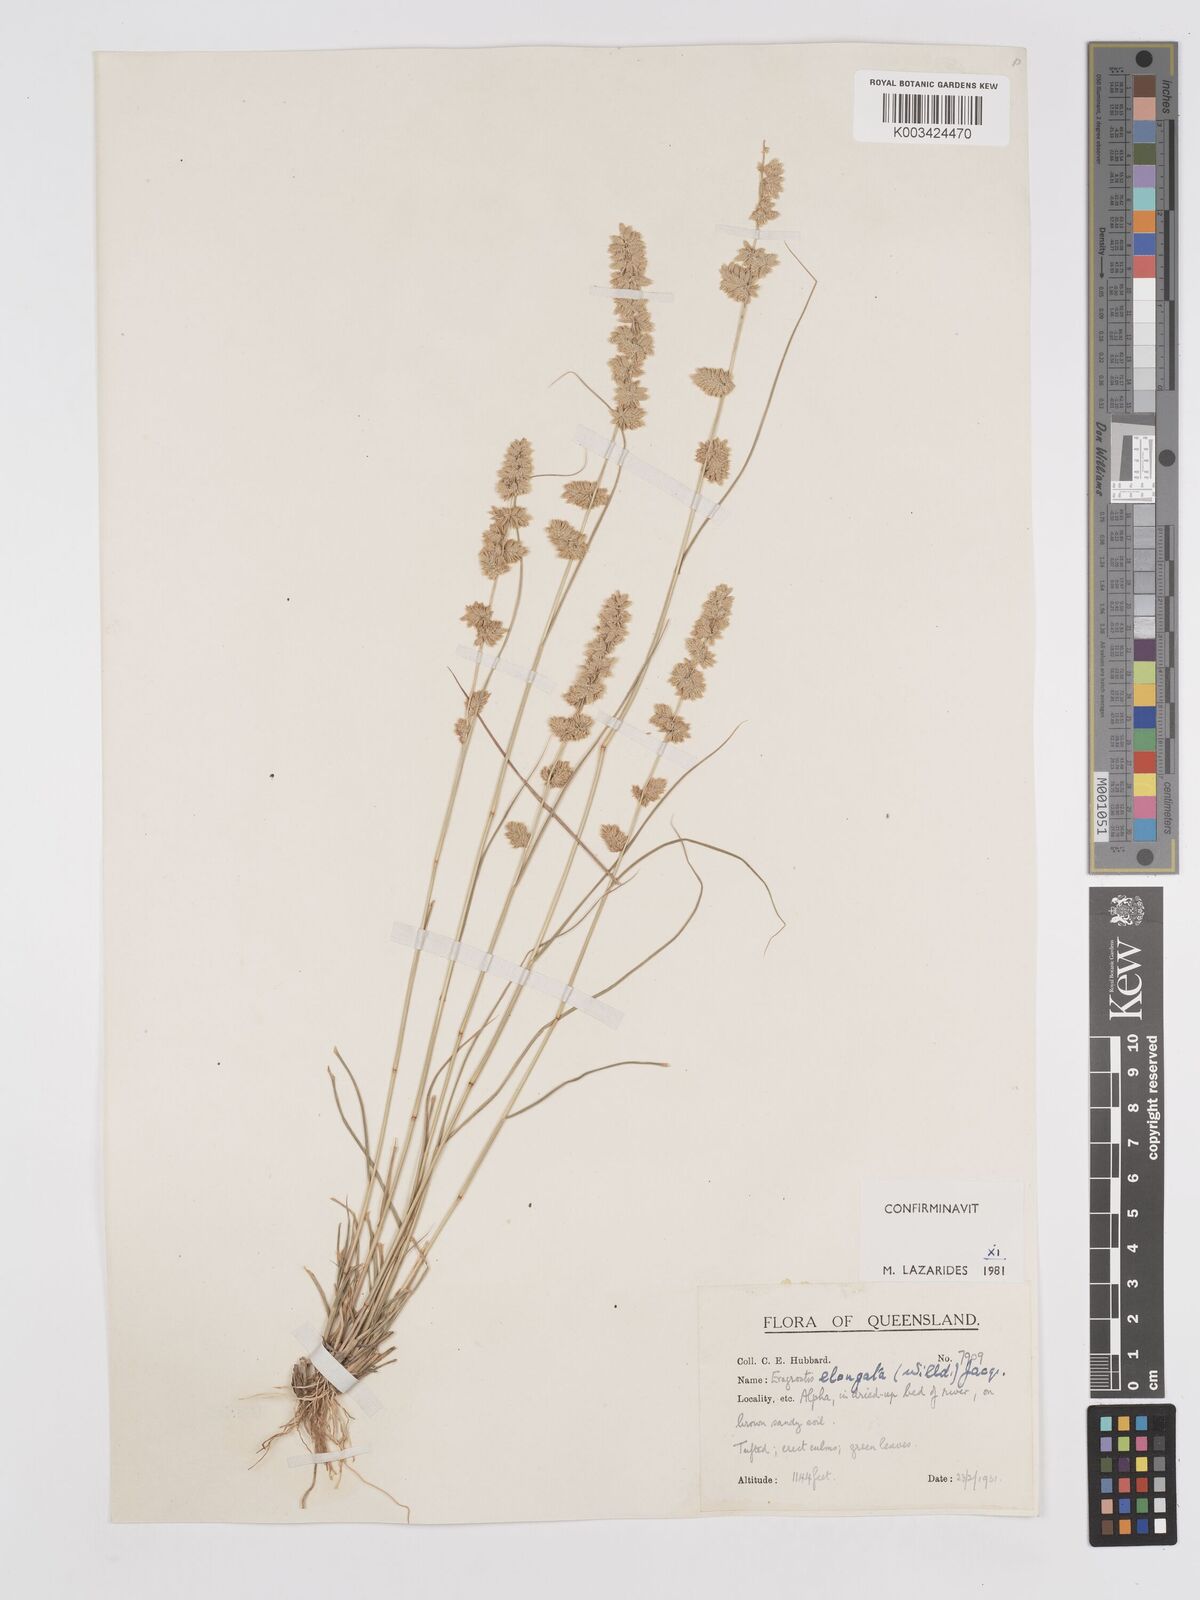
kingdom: Plantae
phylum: Tracheophyta
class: Liliopsida
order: Poales
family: Poaceae
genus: Eragrostis
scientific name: Eragrostis elongata
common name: Long lovegrass
